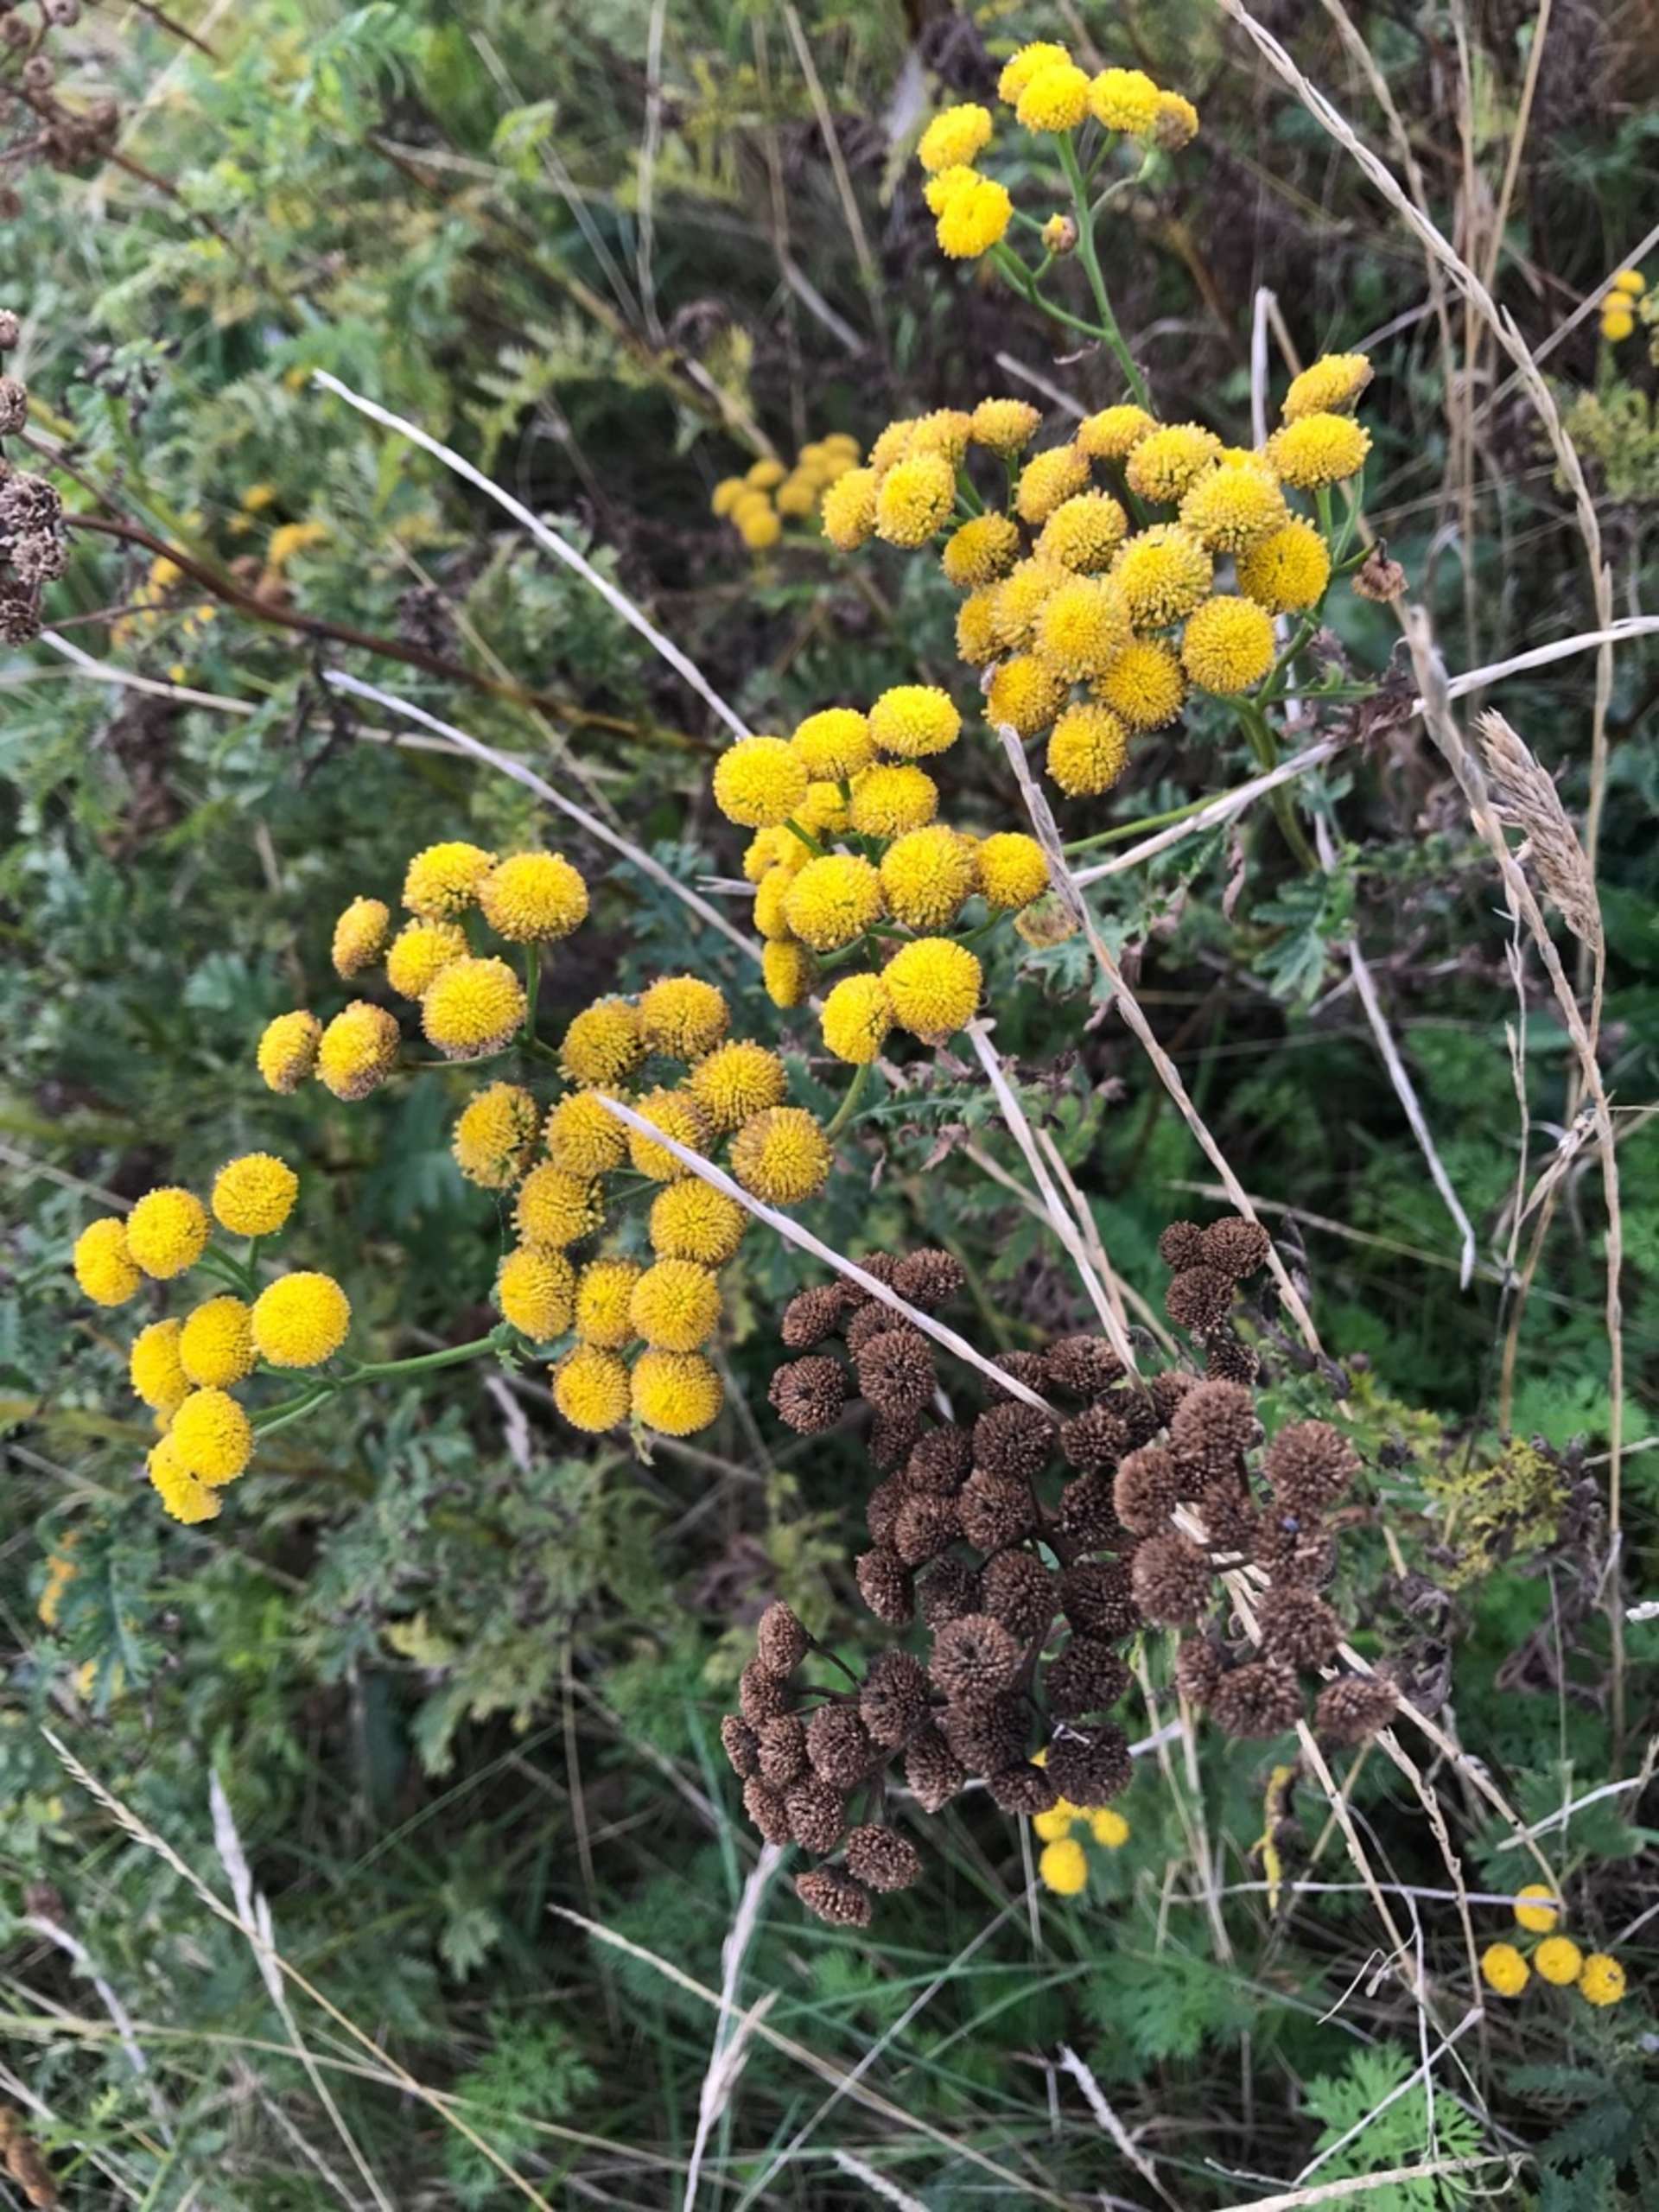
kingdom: Plantae
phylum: Tracheophyta
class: Magnoliopsida
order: Asterales
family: Asteraceae
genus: Tanacetum
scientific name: Tanacetum vulgare
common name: Rejnfan
